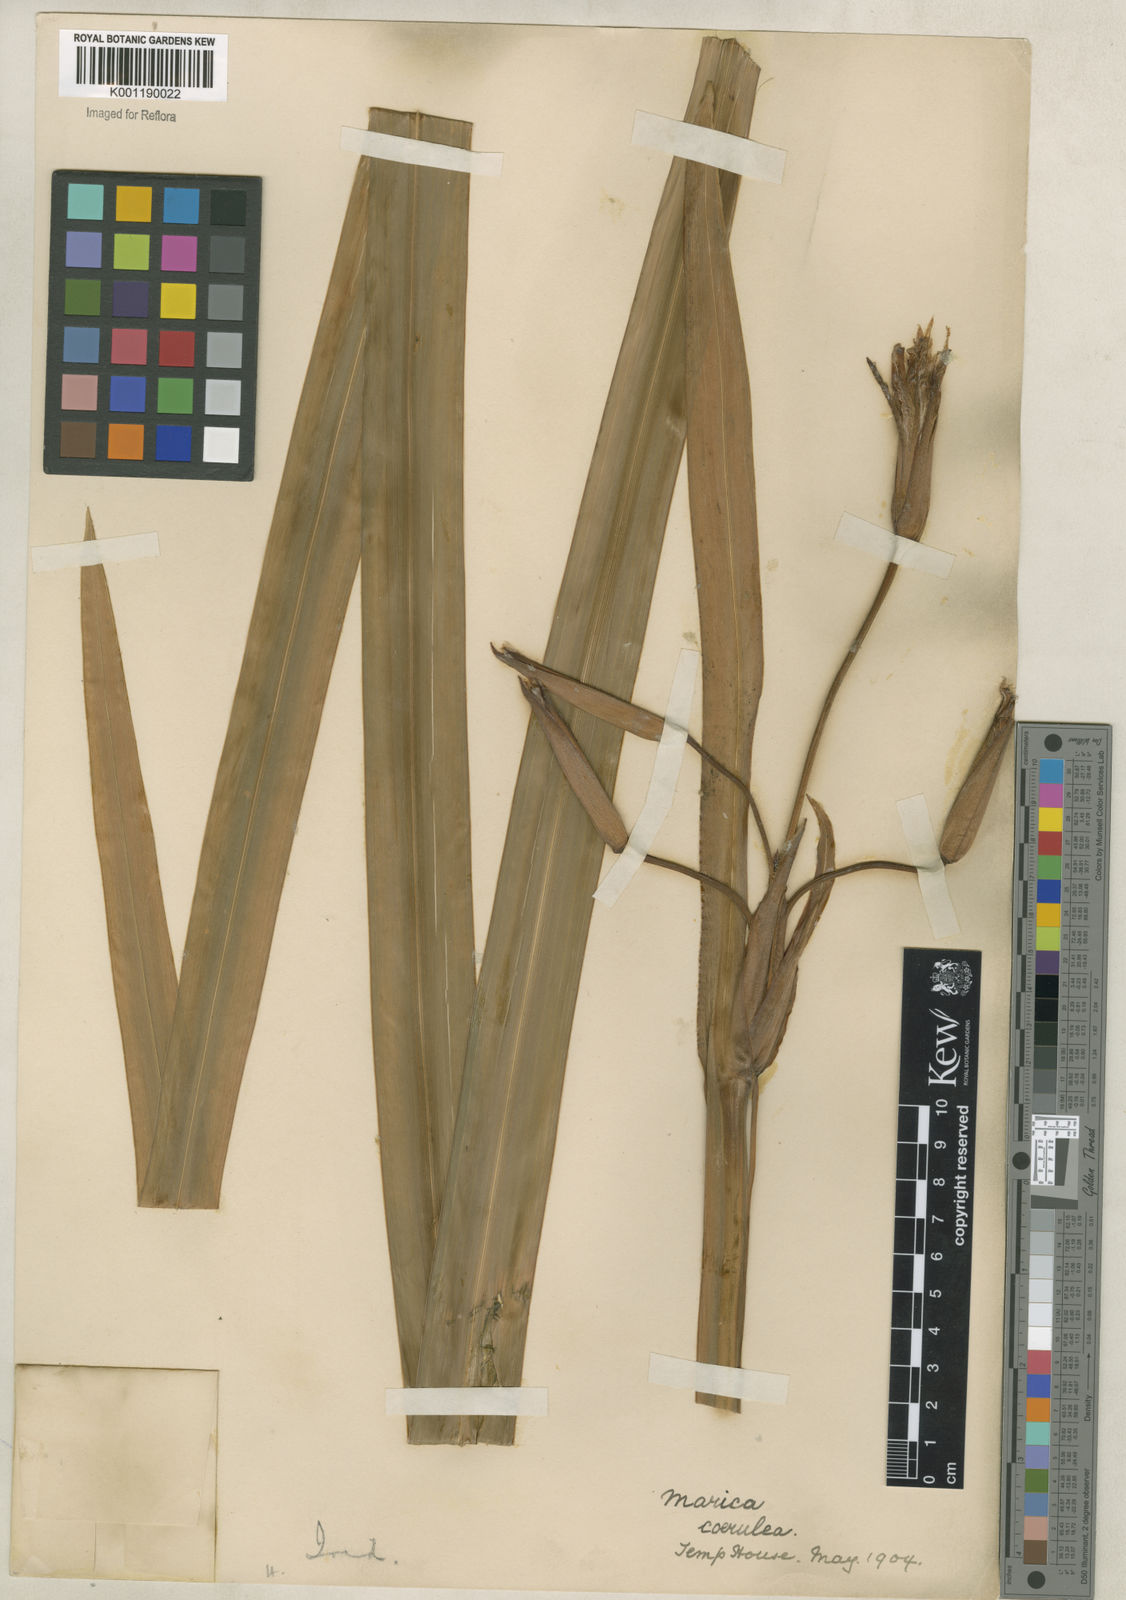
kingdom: Plantae
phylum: Tracheophyta
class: Liliopsida
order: Asparagales
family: Iridaceae
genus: Trimezia
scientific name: Trimezia
